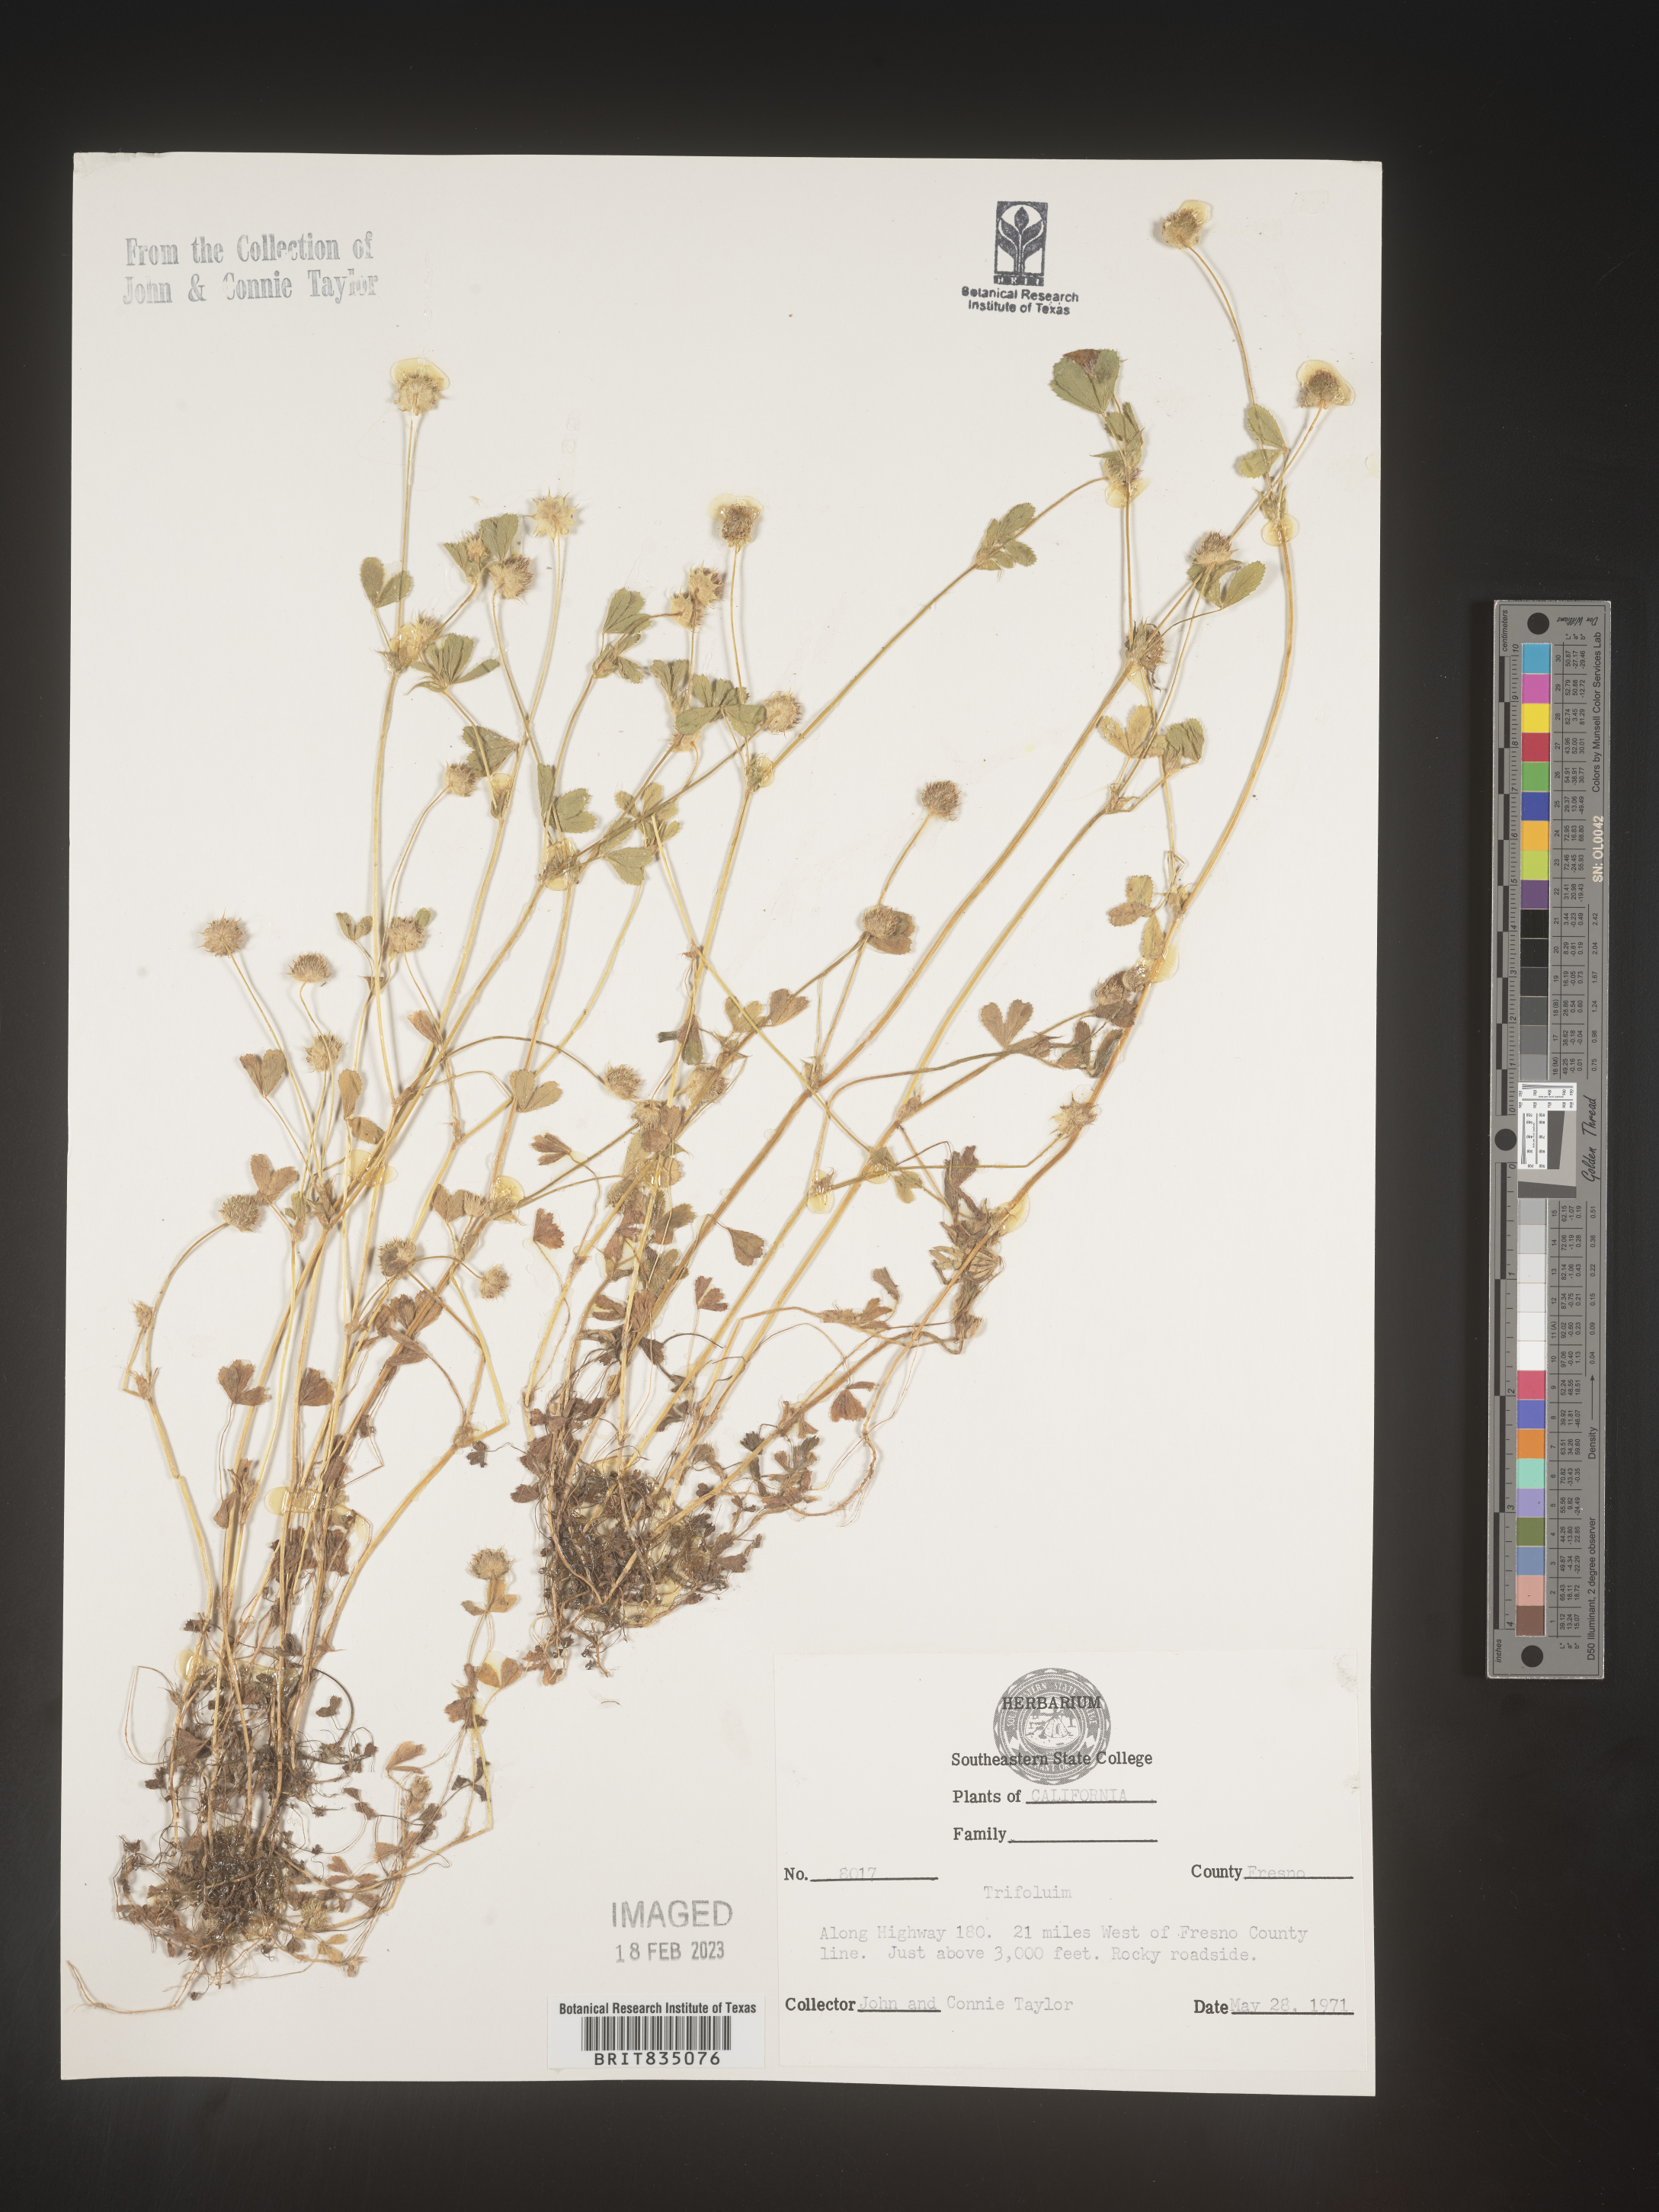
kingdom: Plantae
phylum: Tracheophyta
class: Magnoliopsida
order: Fabales
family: Fabaceae
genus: Trifolium
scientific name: Trifolium
